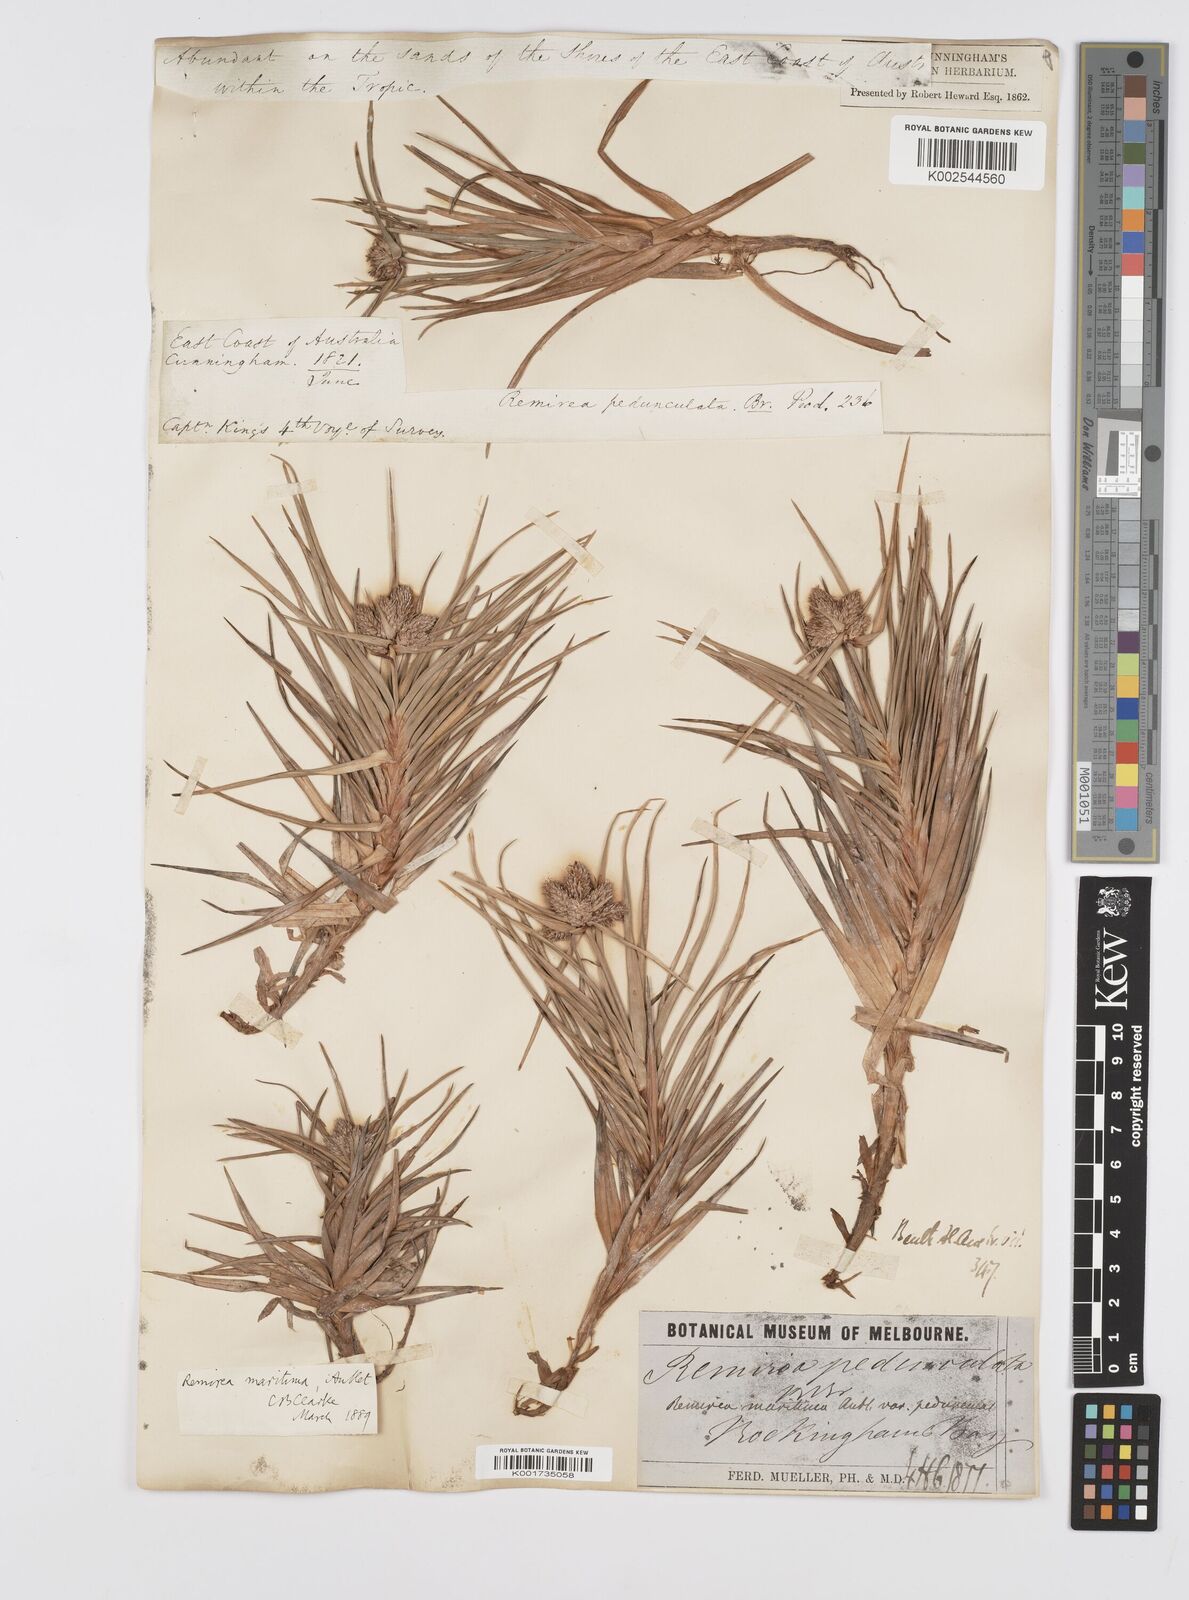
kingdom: Plantae
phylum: Tracheophyta
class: Liliopsida
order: Poales
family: Cyperaceae
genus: Cyperus
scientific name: Cyperus
